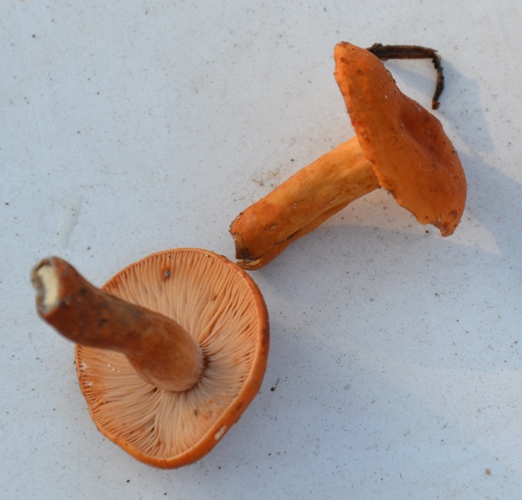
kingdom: Fungi
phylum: Basidiomycota
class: Agaricomycetes
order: Russulales
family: Russulaceae
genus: Lactarius
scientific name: Lactarius aurantiacus
